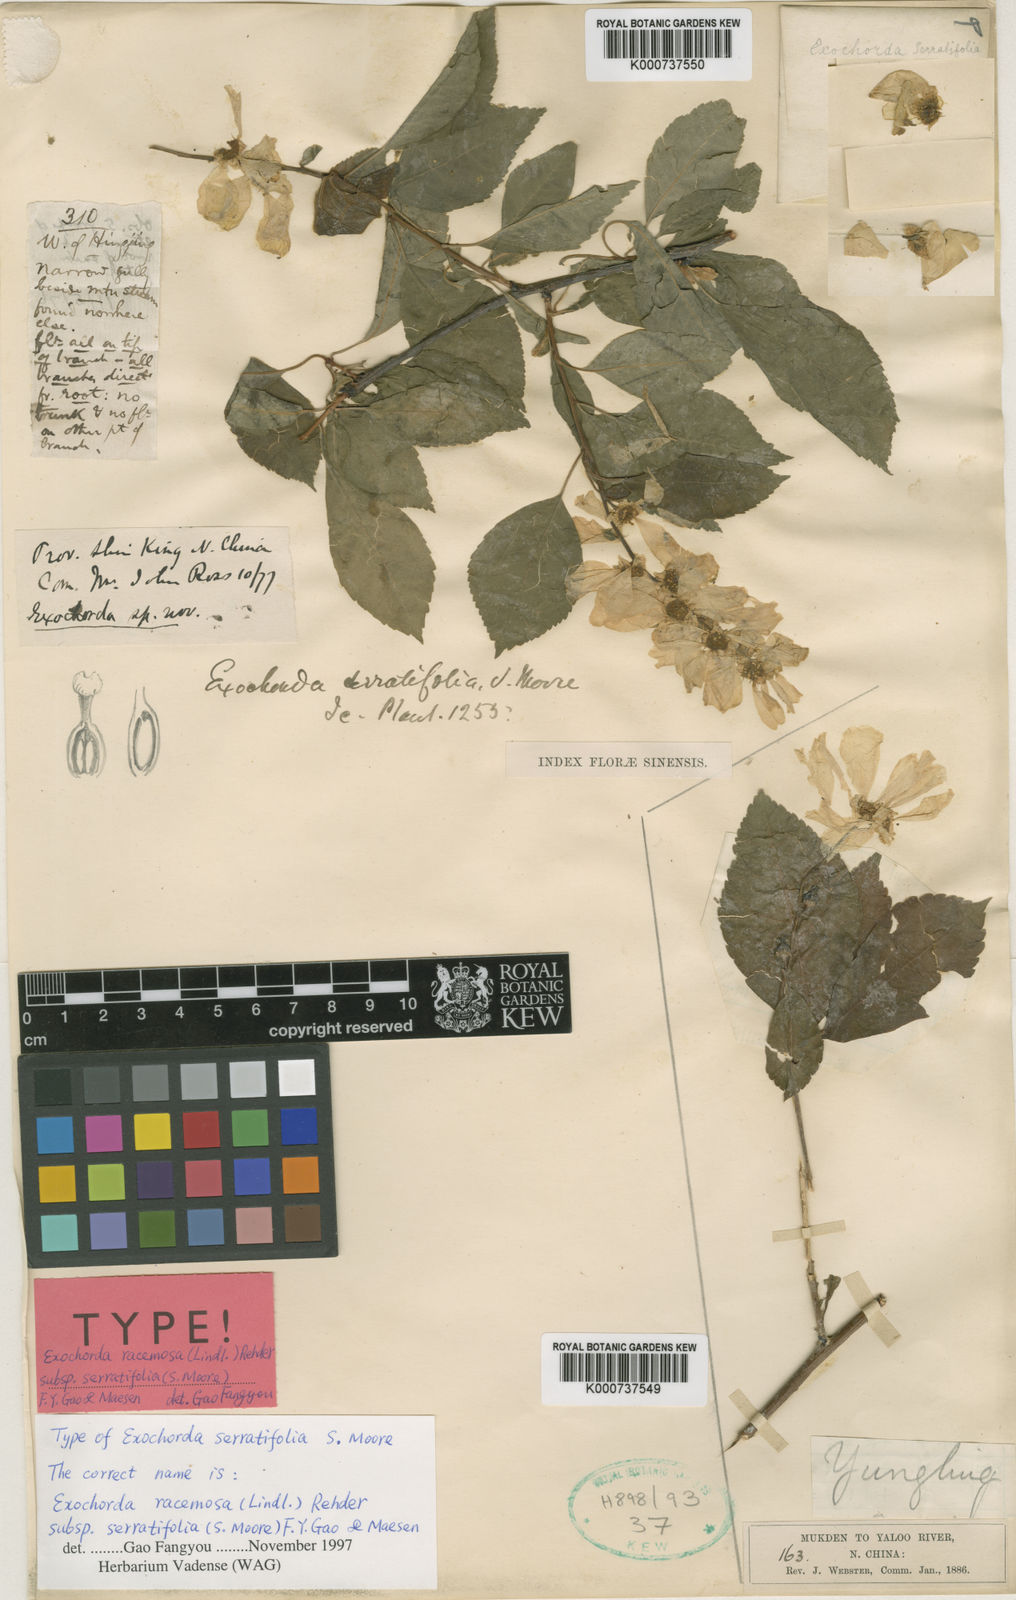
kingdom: Plantae
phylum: Tracheophyta
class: Magnoliopsida
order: Rosales
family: Rosaceae
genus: Exochorda
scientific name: Exochorda racemosa
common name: Common pearlbrush
